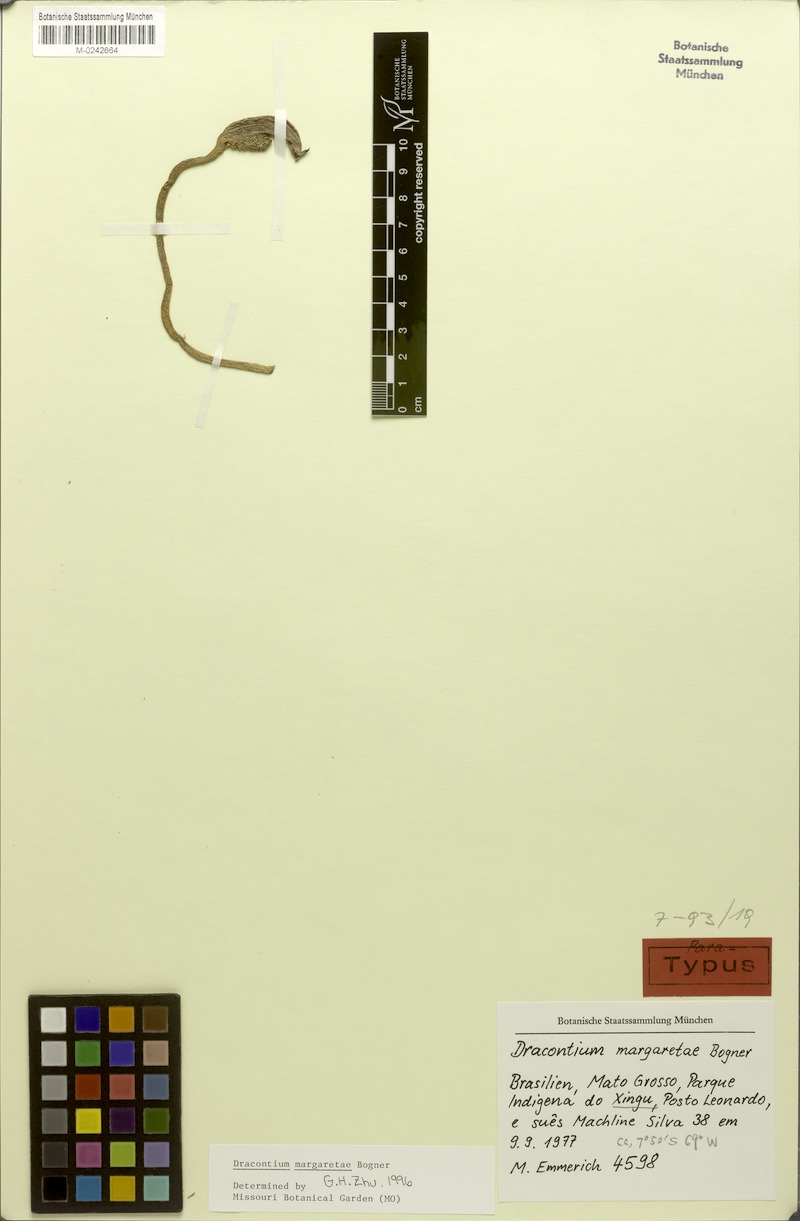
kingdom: Plantae
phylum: Tracheophyta
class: Liliopsida
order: Alismatales
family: Araceae
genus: Dracontium
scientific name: Dracontium margaretae
